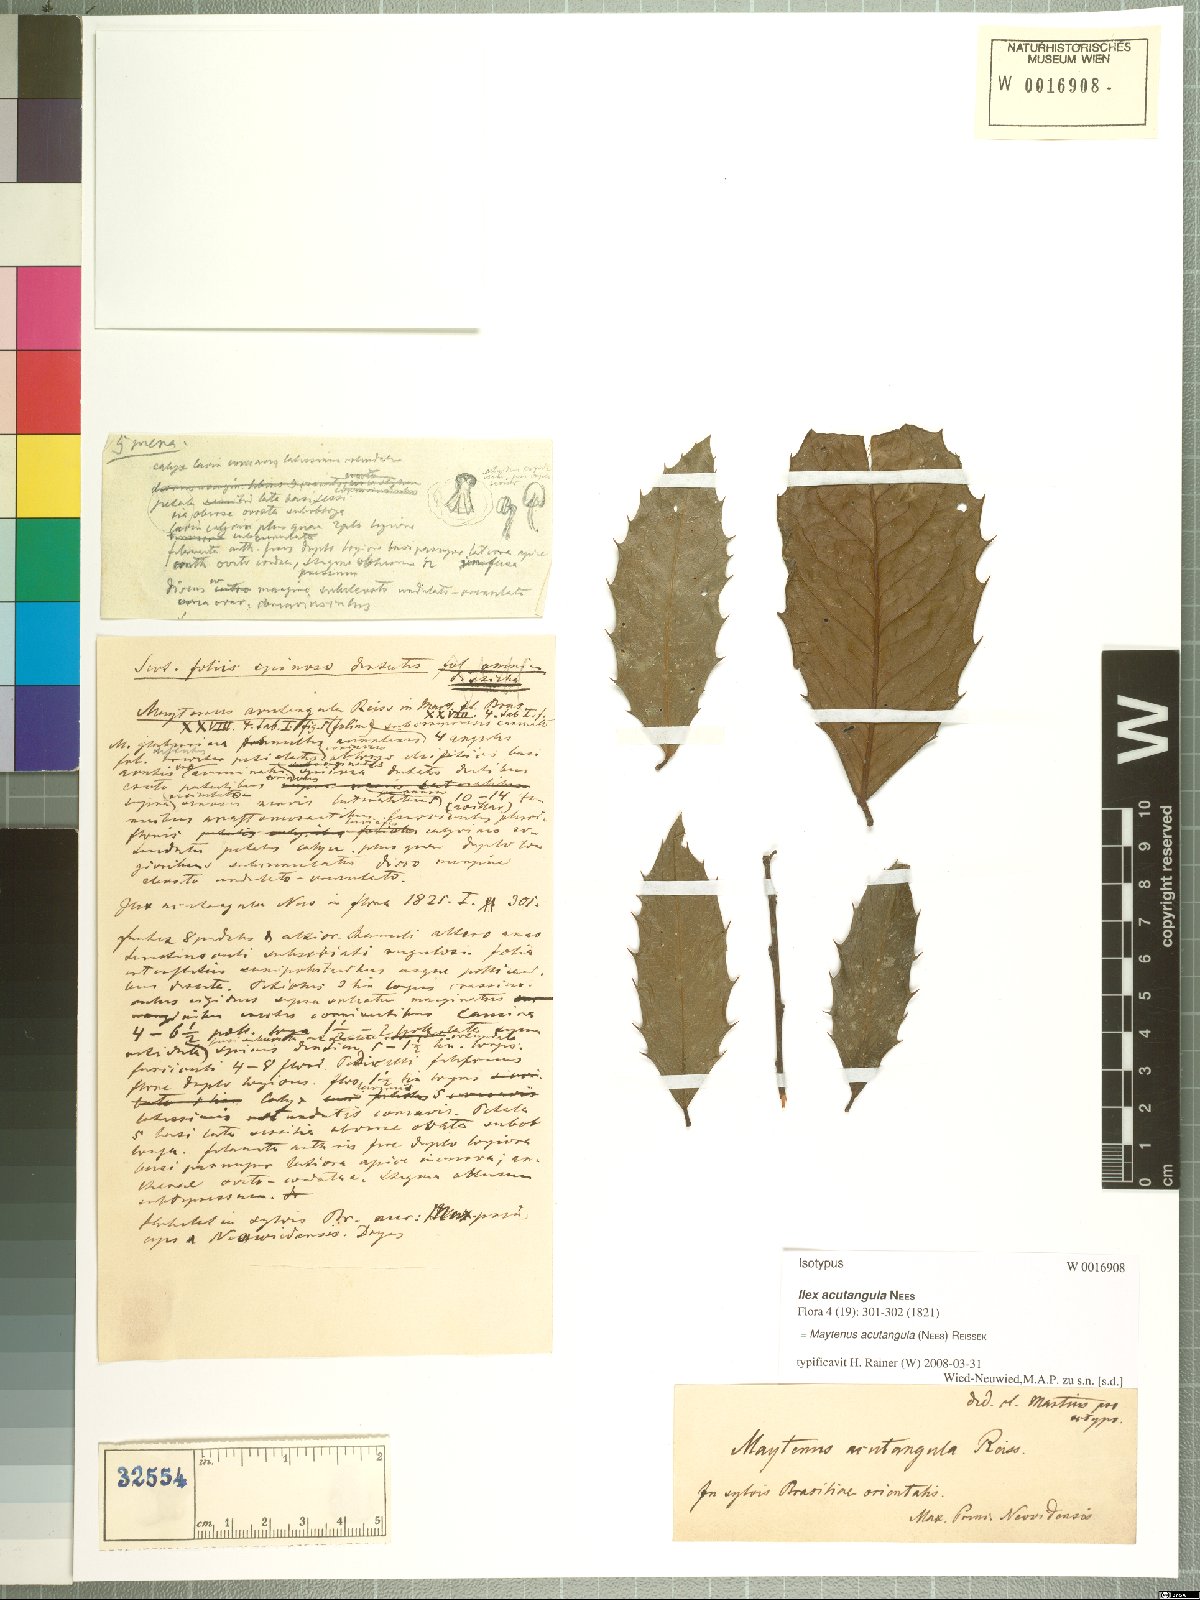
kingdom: Plantae
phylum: Tracheophyta
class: Magnoliopsida
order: Celastrales
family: Celastraceae
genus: Maytenus
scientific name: Maytenus acutangula
